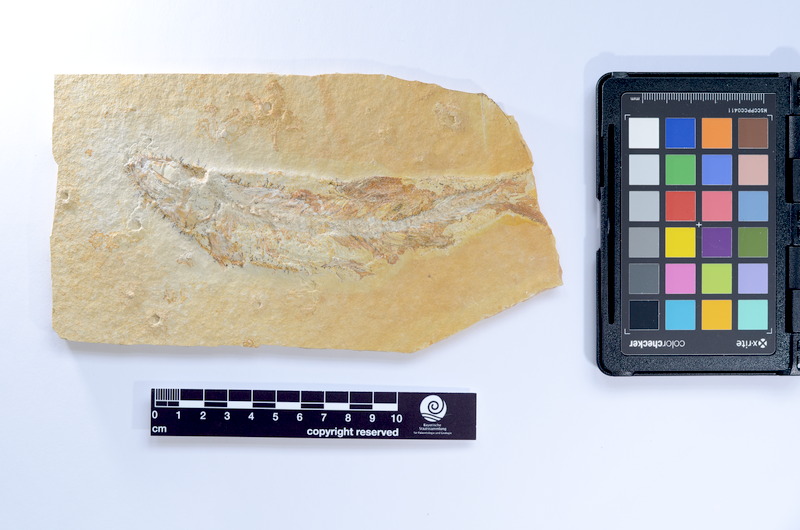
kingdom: Animalia
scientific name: Animalia
